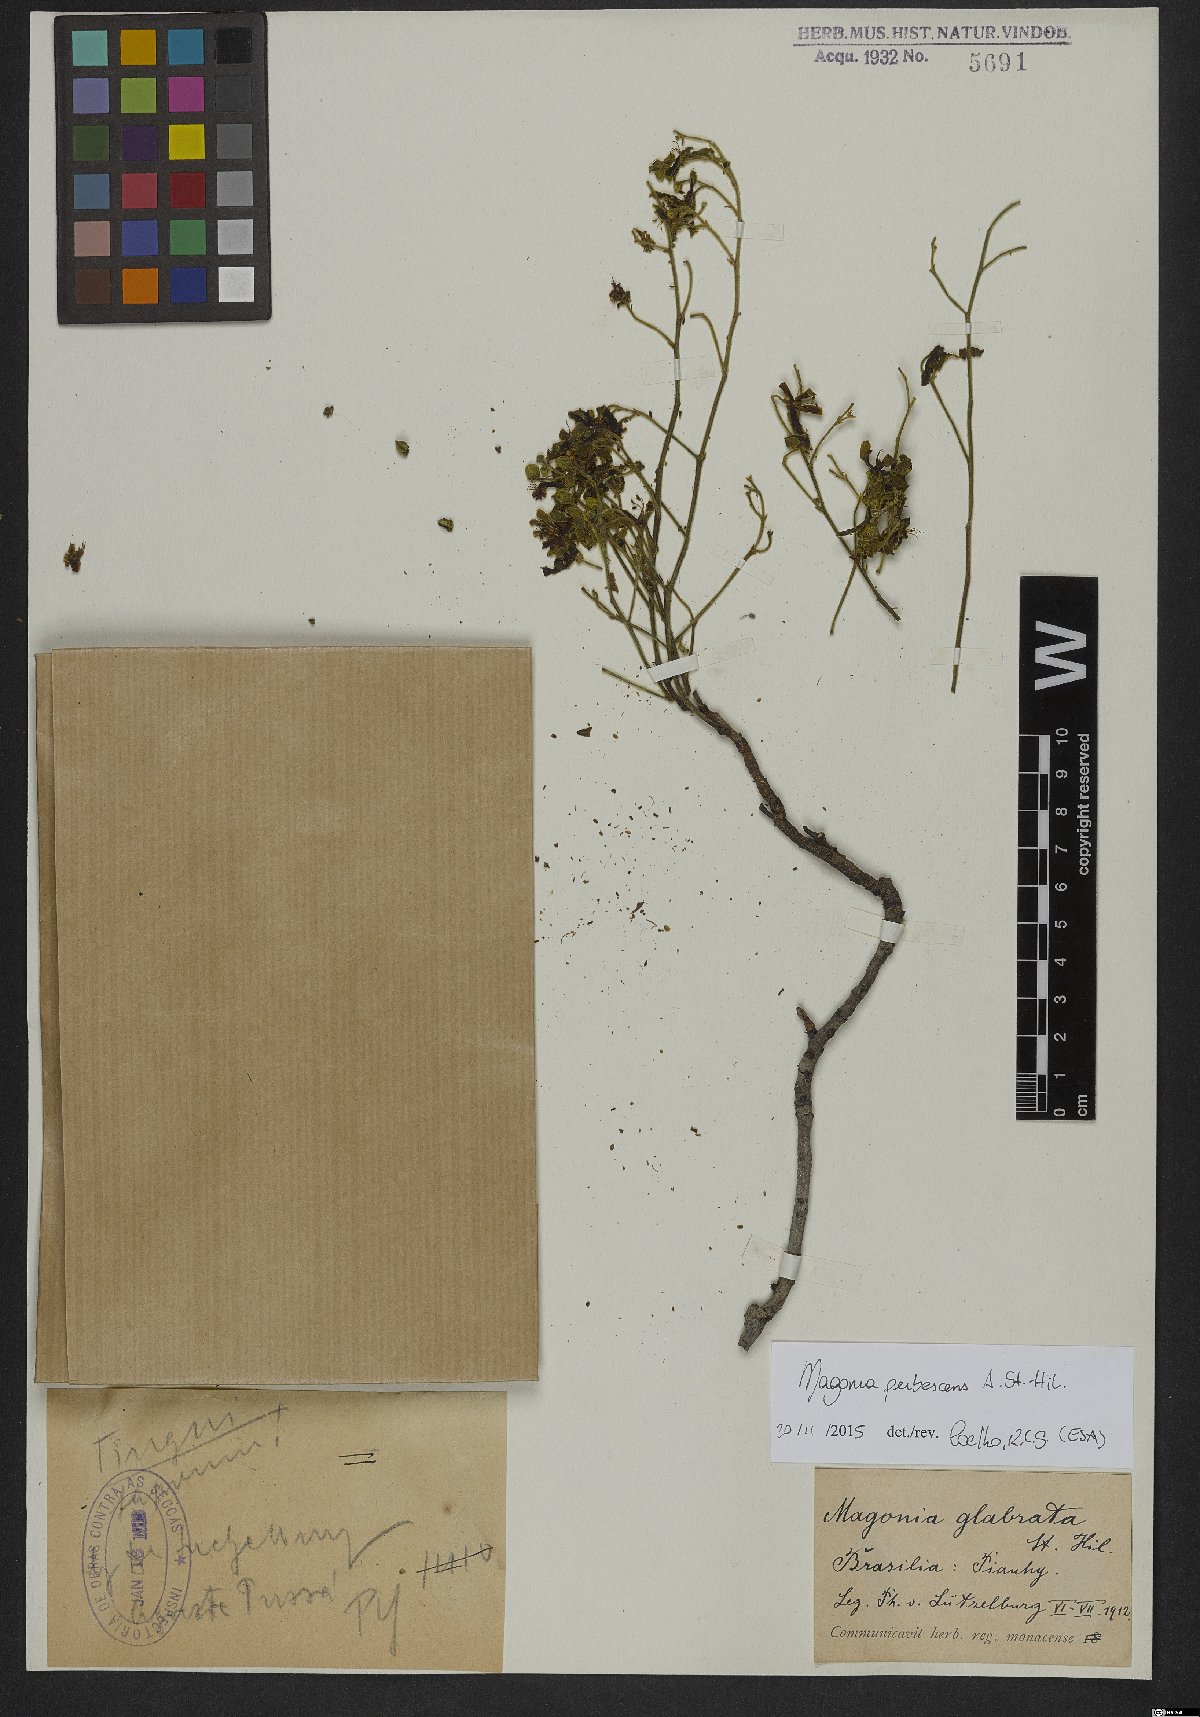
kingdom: Plantae
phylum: Tracheophyta
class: Magnoliopsida
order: Sapindales
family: Sapindaceae
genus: Magonia
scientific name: Magonia pubescens
